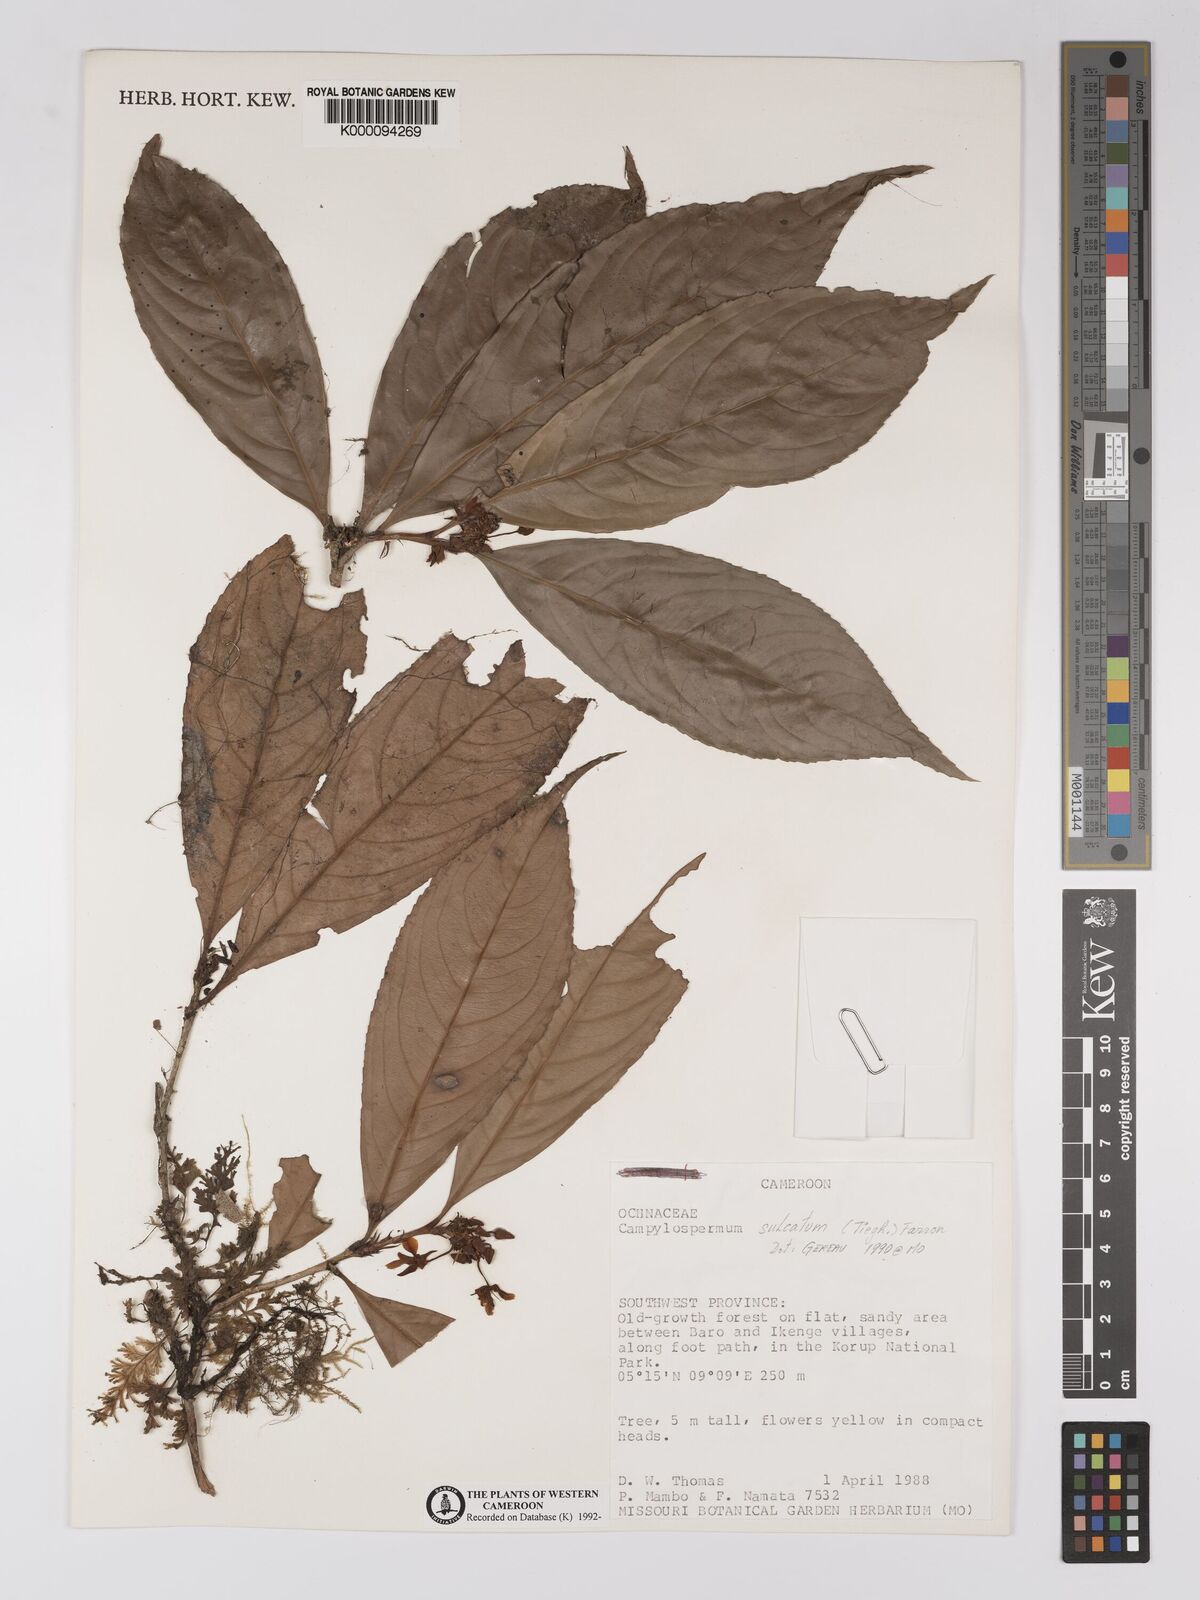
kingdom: Plantae
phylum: Tracheophyta
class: Magnoliopsida
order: Malpighiales
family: Ochnaceae
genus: Campylospermum
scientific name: Campylospermum sulcatum
